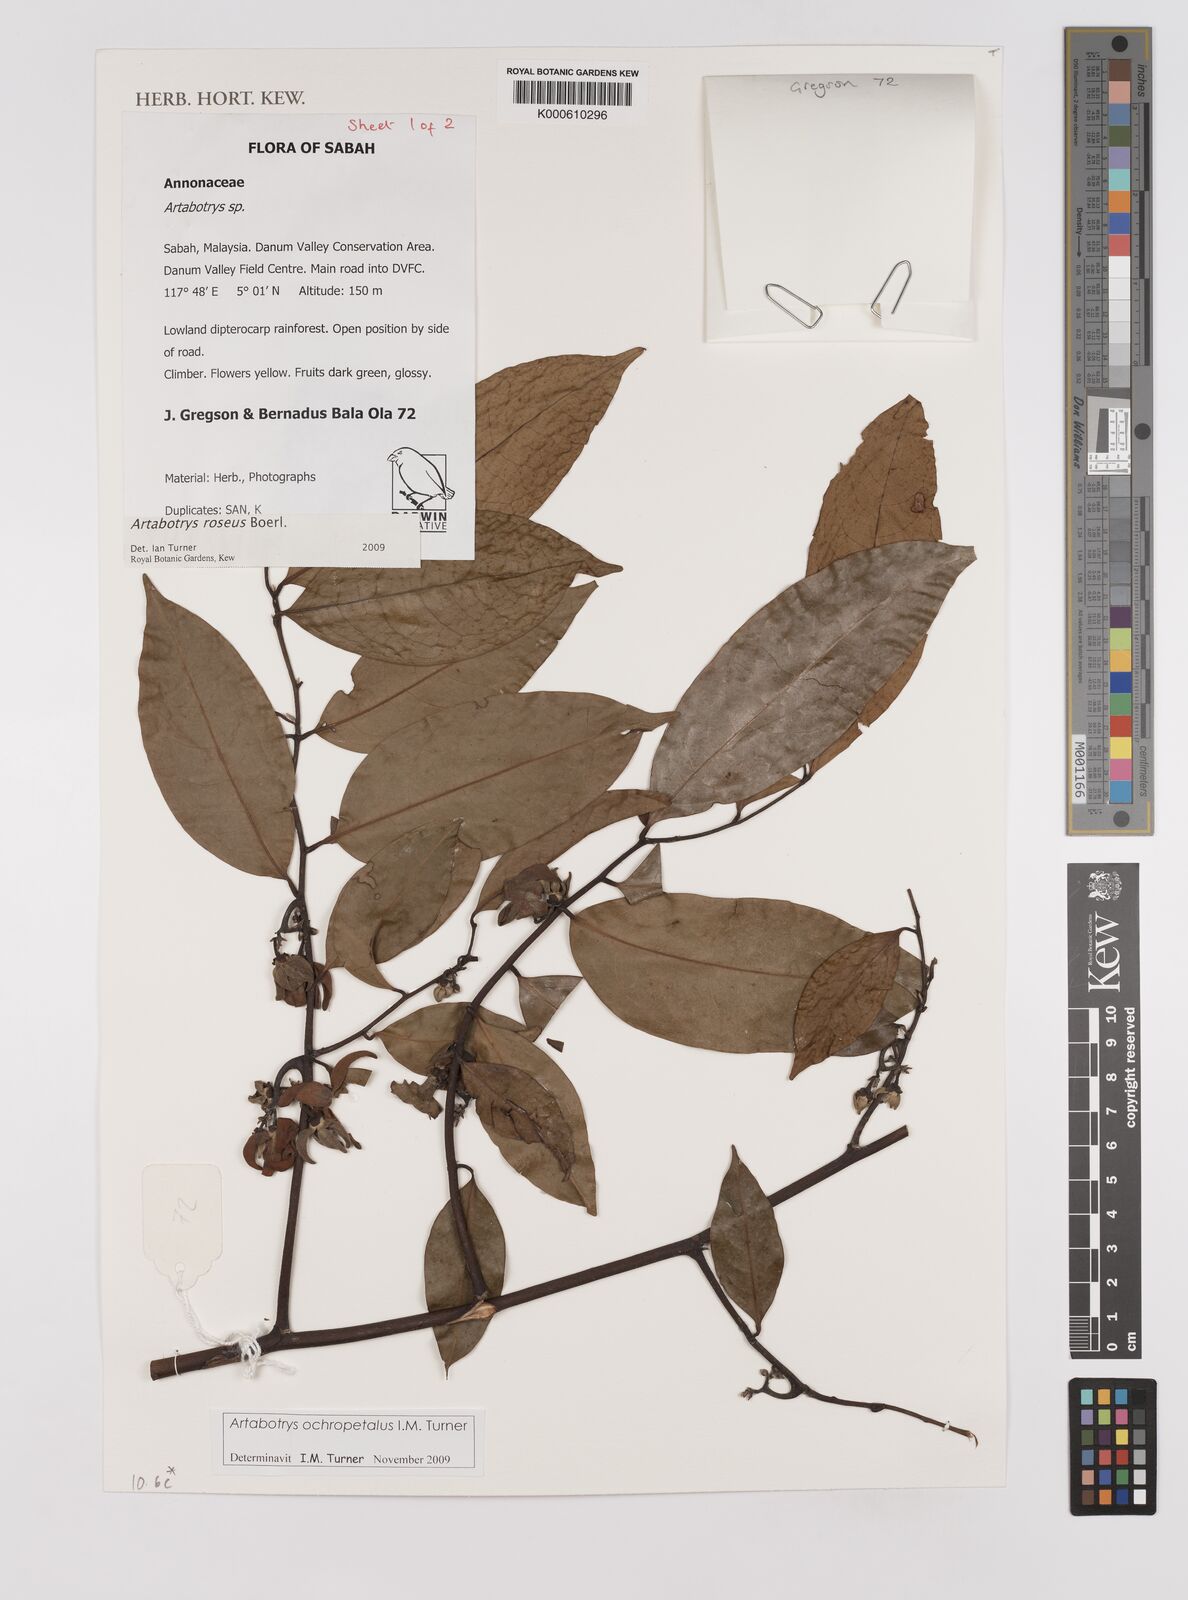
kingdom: Plantae
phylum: Tracheophyta
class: Magnoliopsida
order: Magnoliales
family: Annonaceae
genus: Artabotrys
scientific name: Artabotrys roseus
